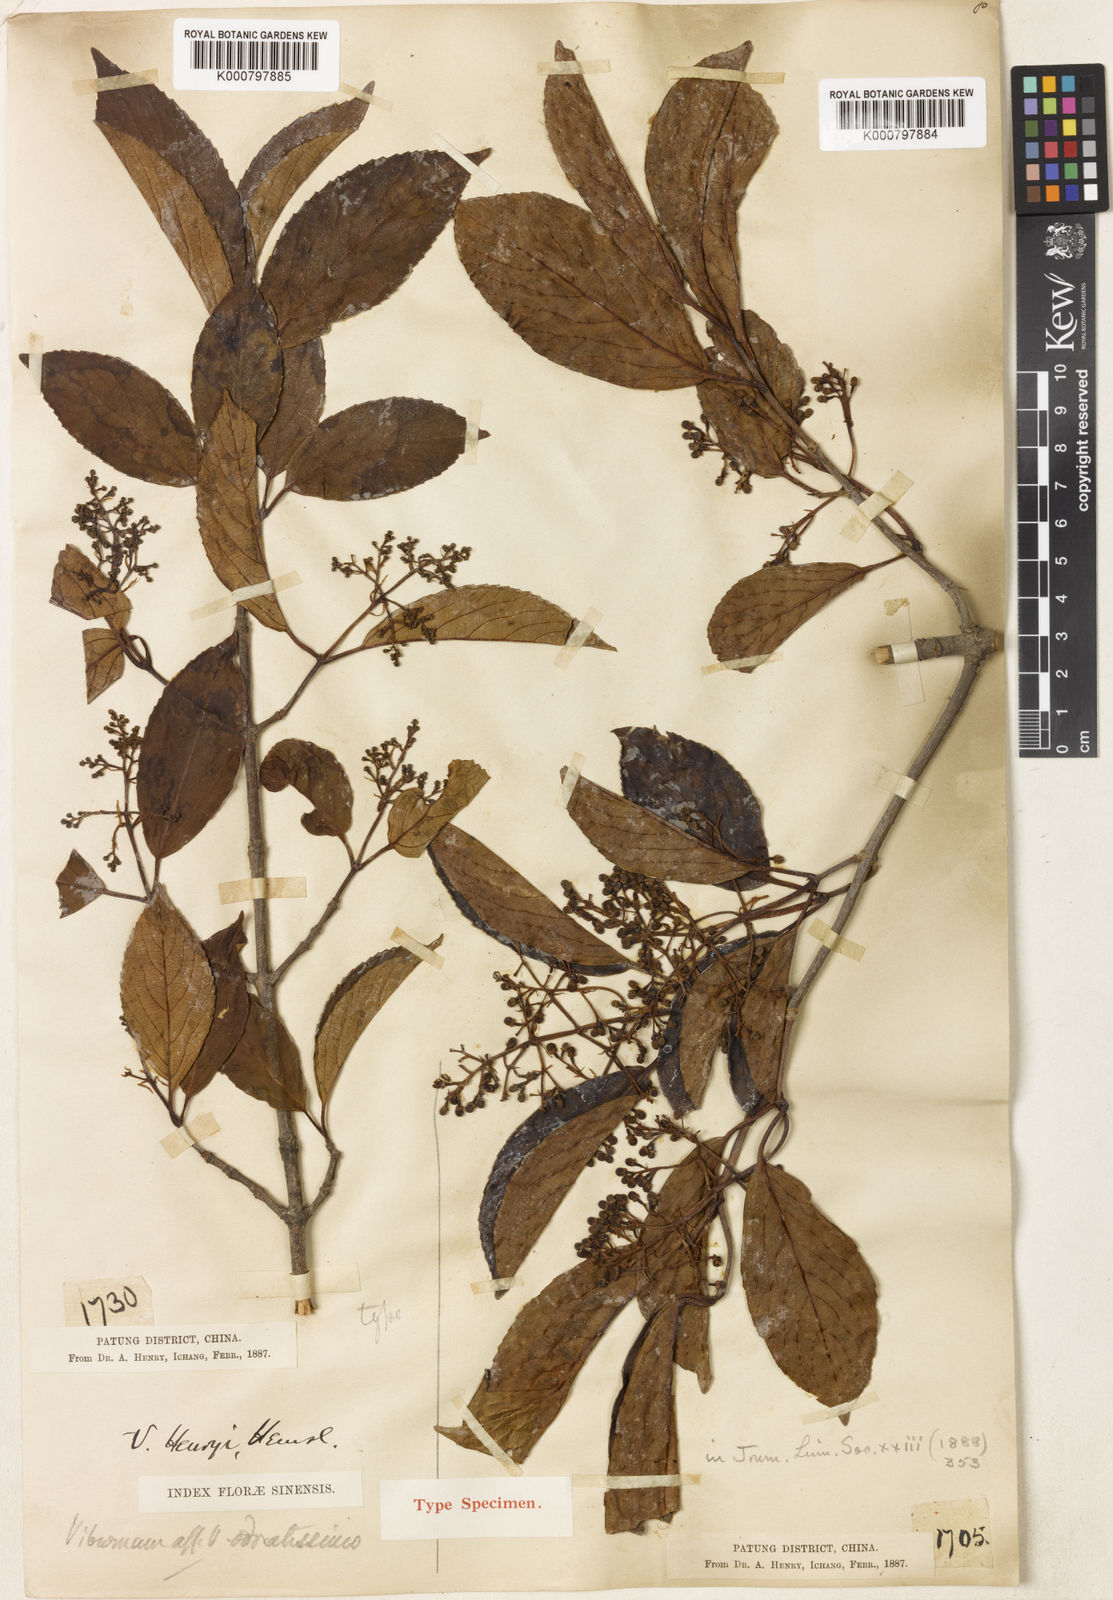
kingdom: Plantae
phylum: Tracheophyta
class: Magnoliopsida
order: Dipsacales
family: Viburnaceae
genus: Viburnum
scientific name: Viburnum henryi
